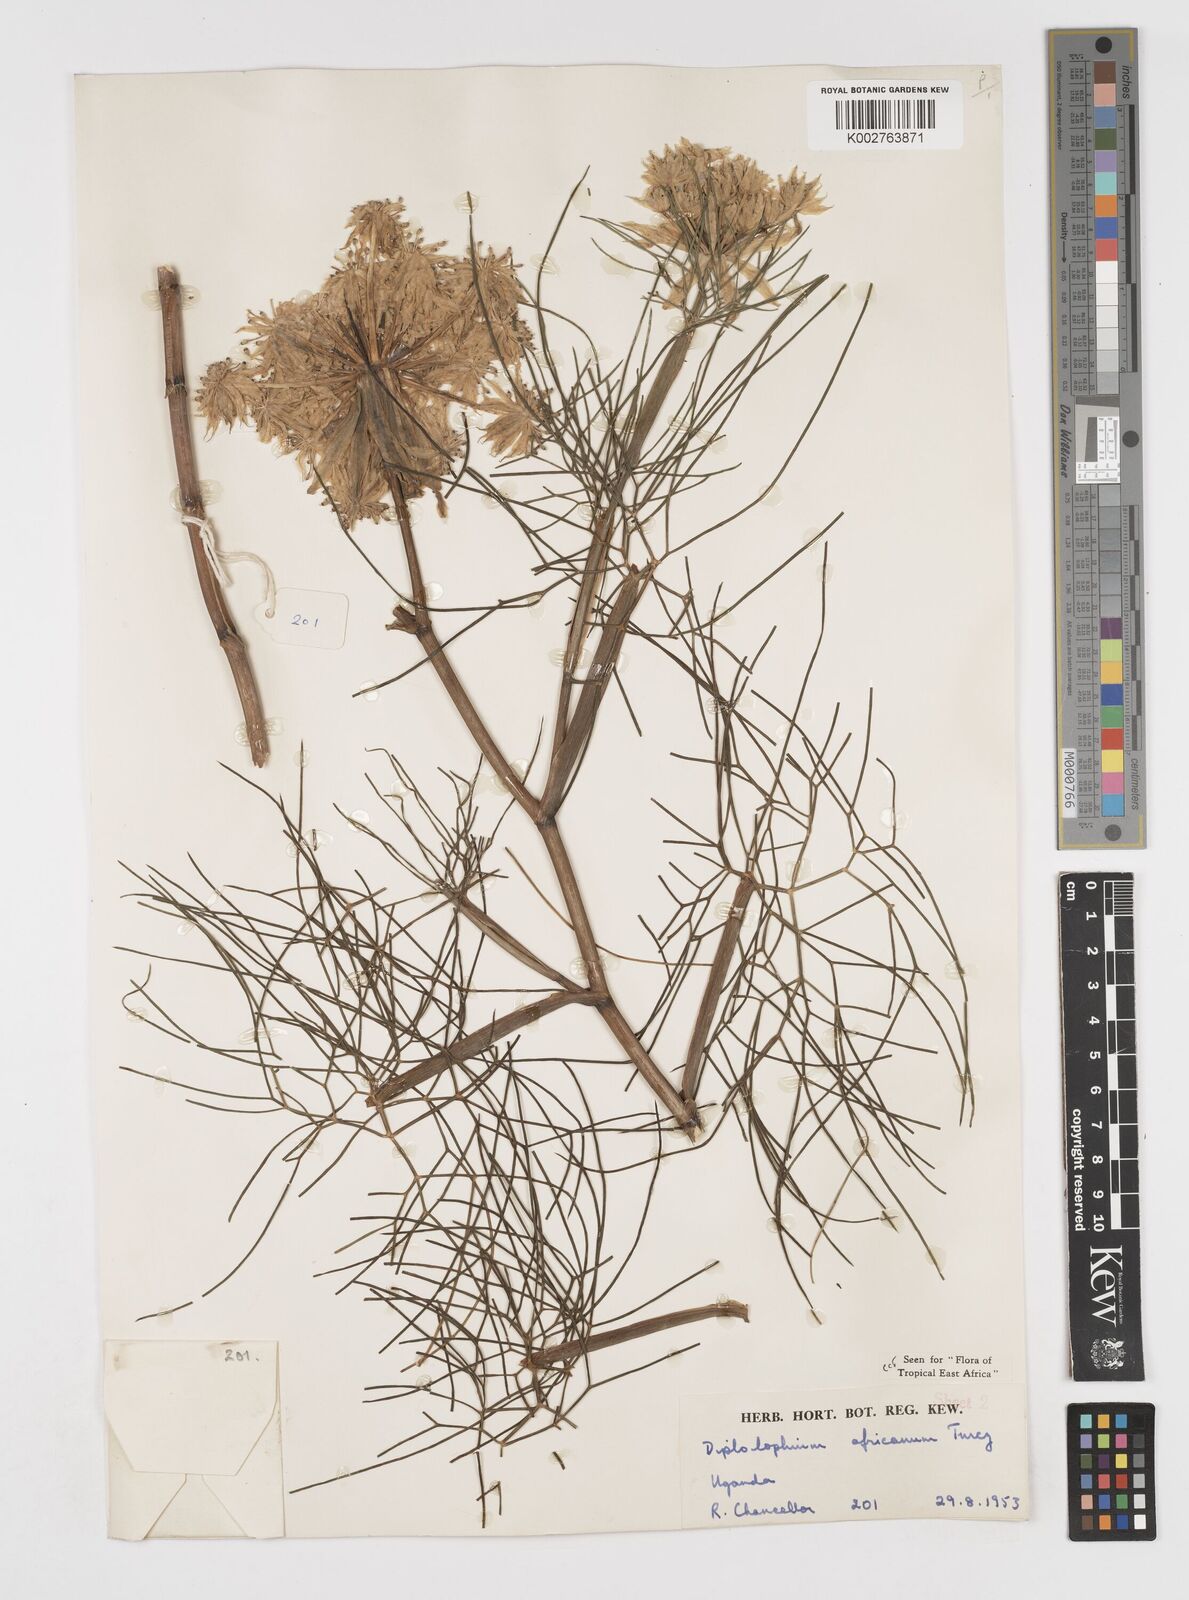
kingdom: Plantae
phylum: Tracheophyta
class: Magnoliopsida
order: Apiales
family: Apiaceae
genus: Diplolophium
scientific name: Diplolophium africanum
